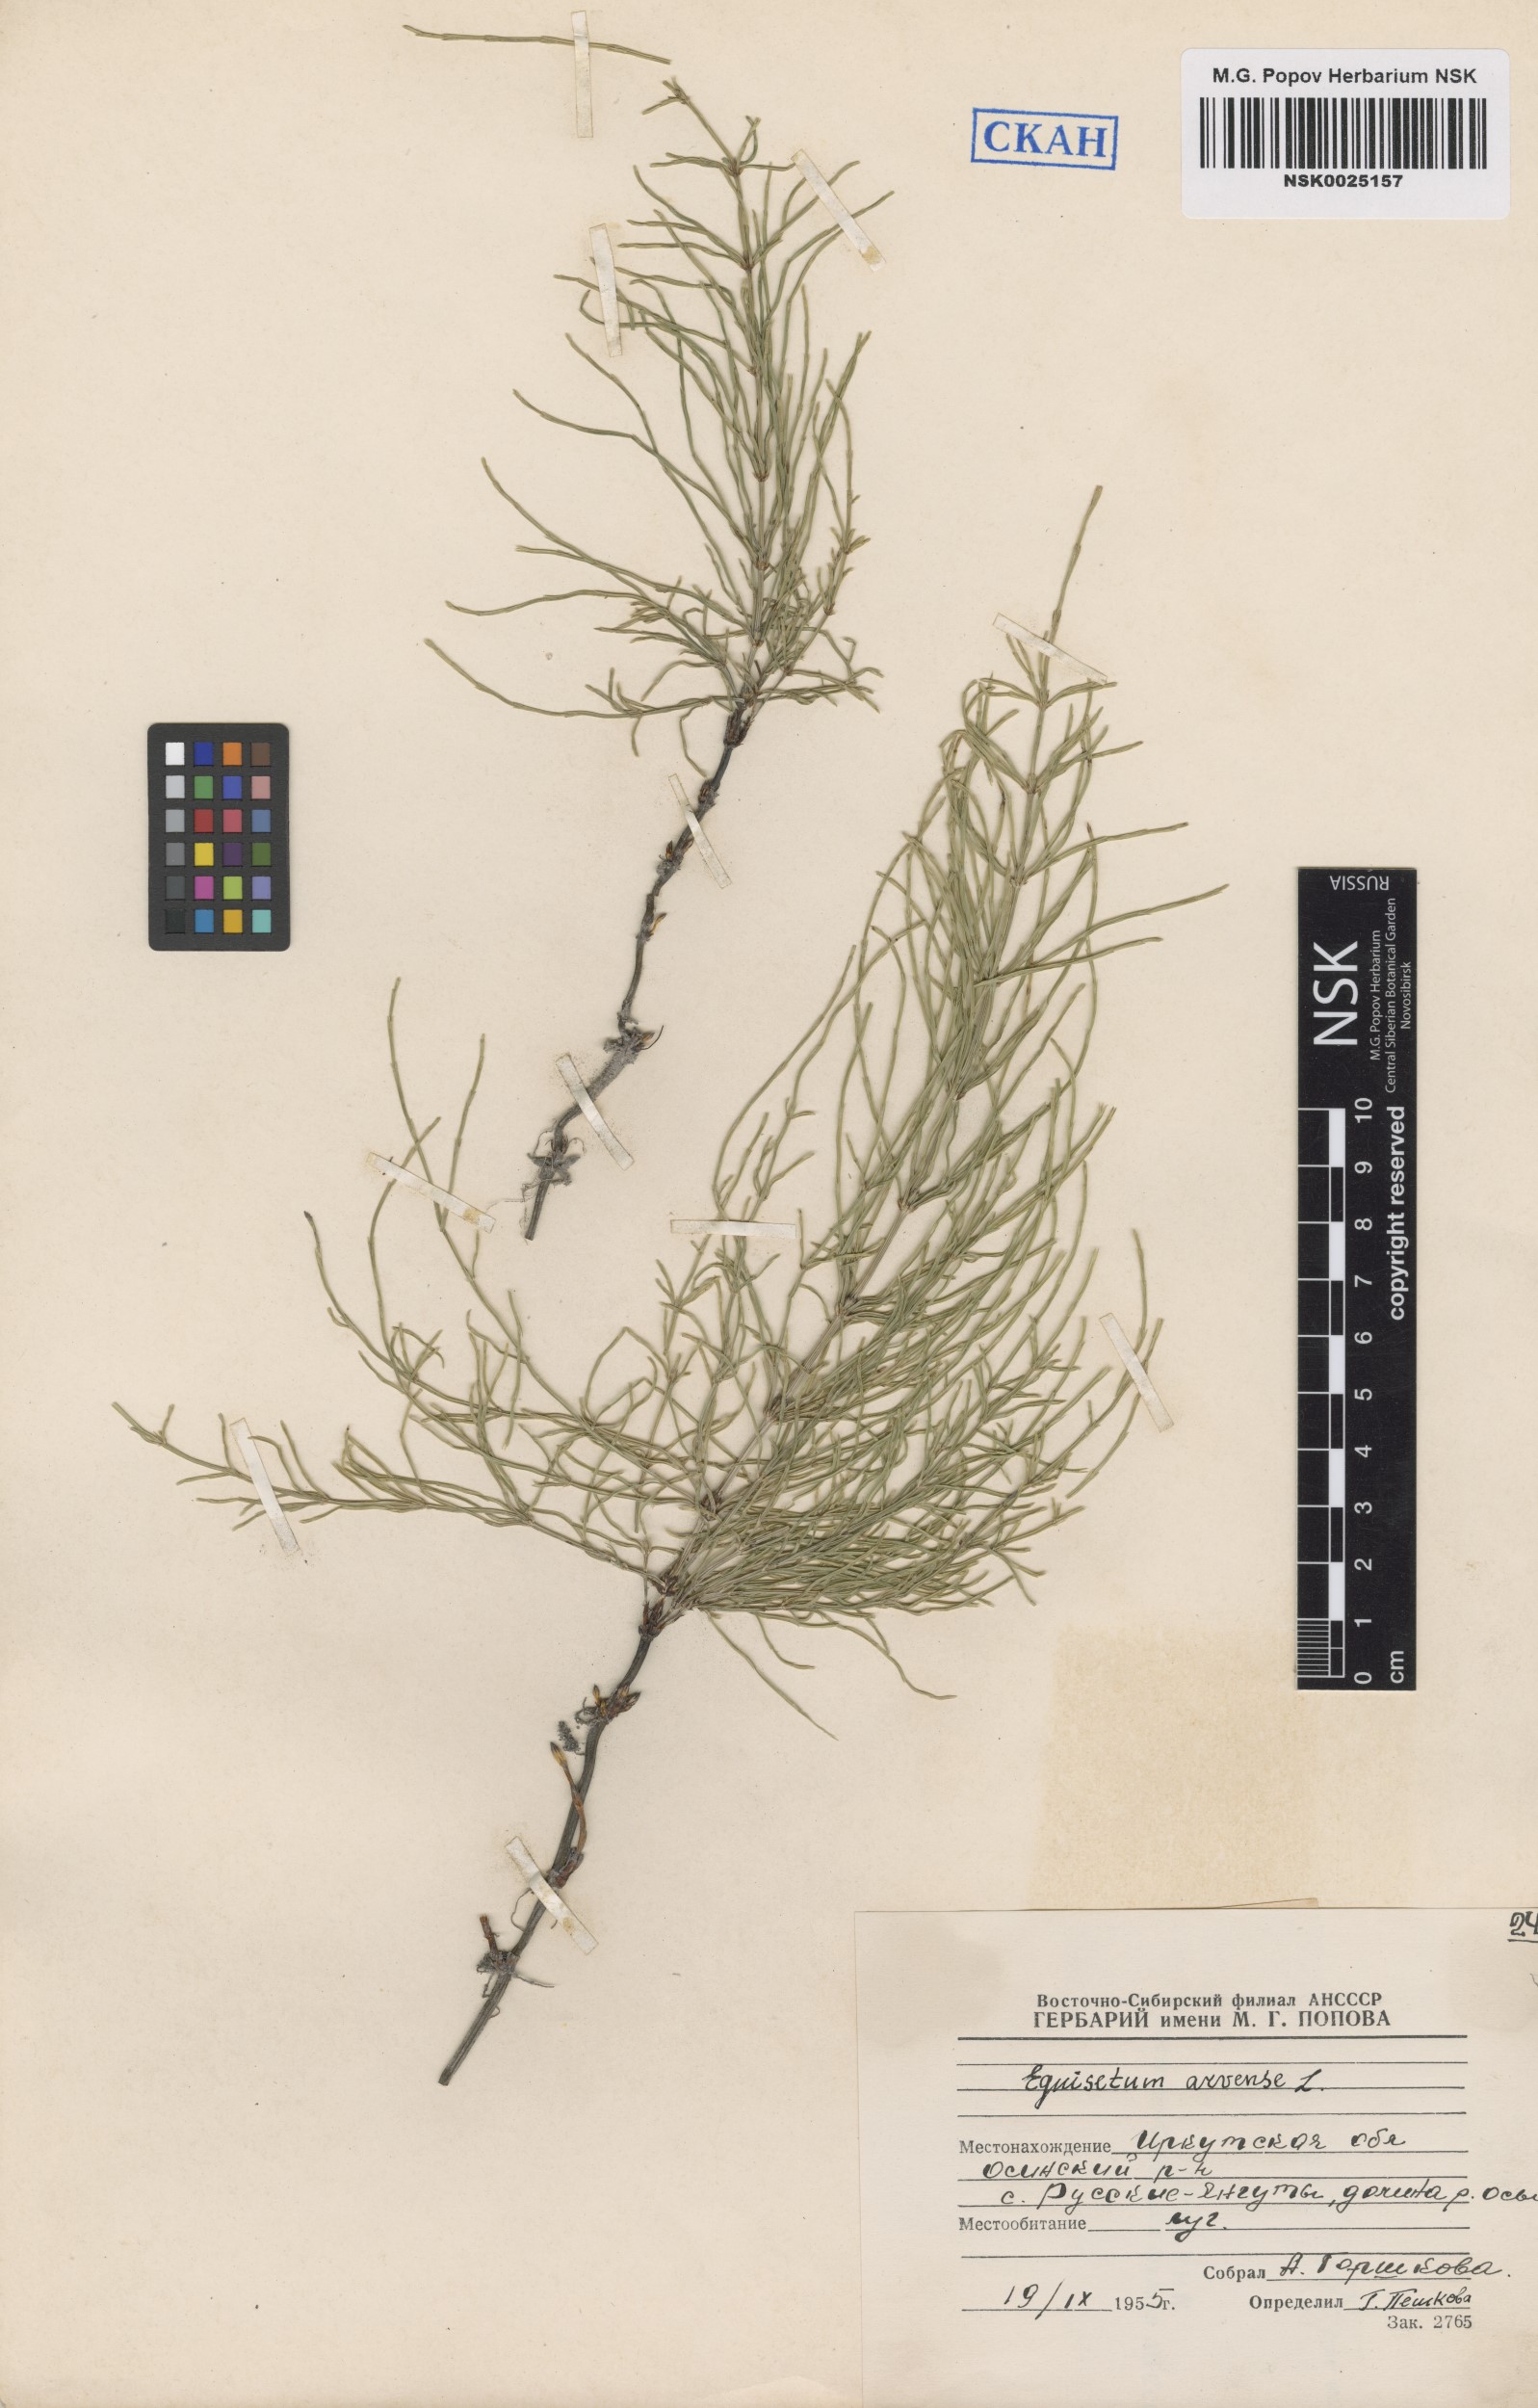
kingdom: Plantae
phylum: Tracheophyta
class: Polypodiopsida
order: Equisetales
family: Equisetaceae
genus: Equisetum
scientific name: Equisetum arvense
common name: Field horsetail
